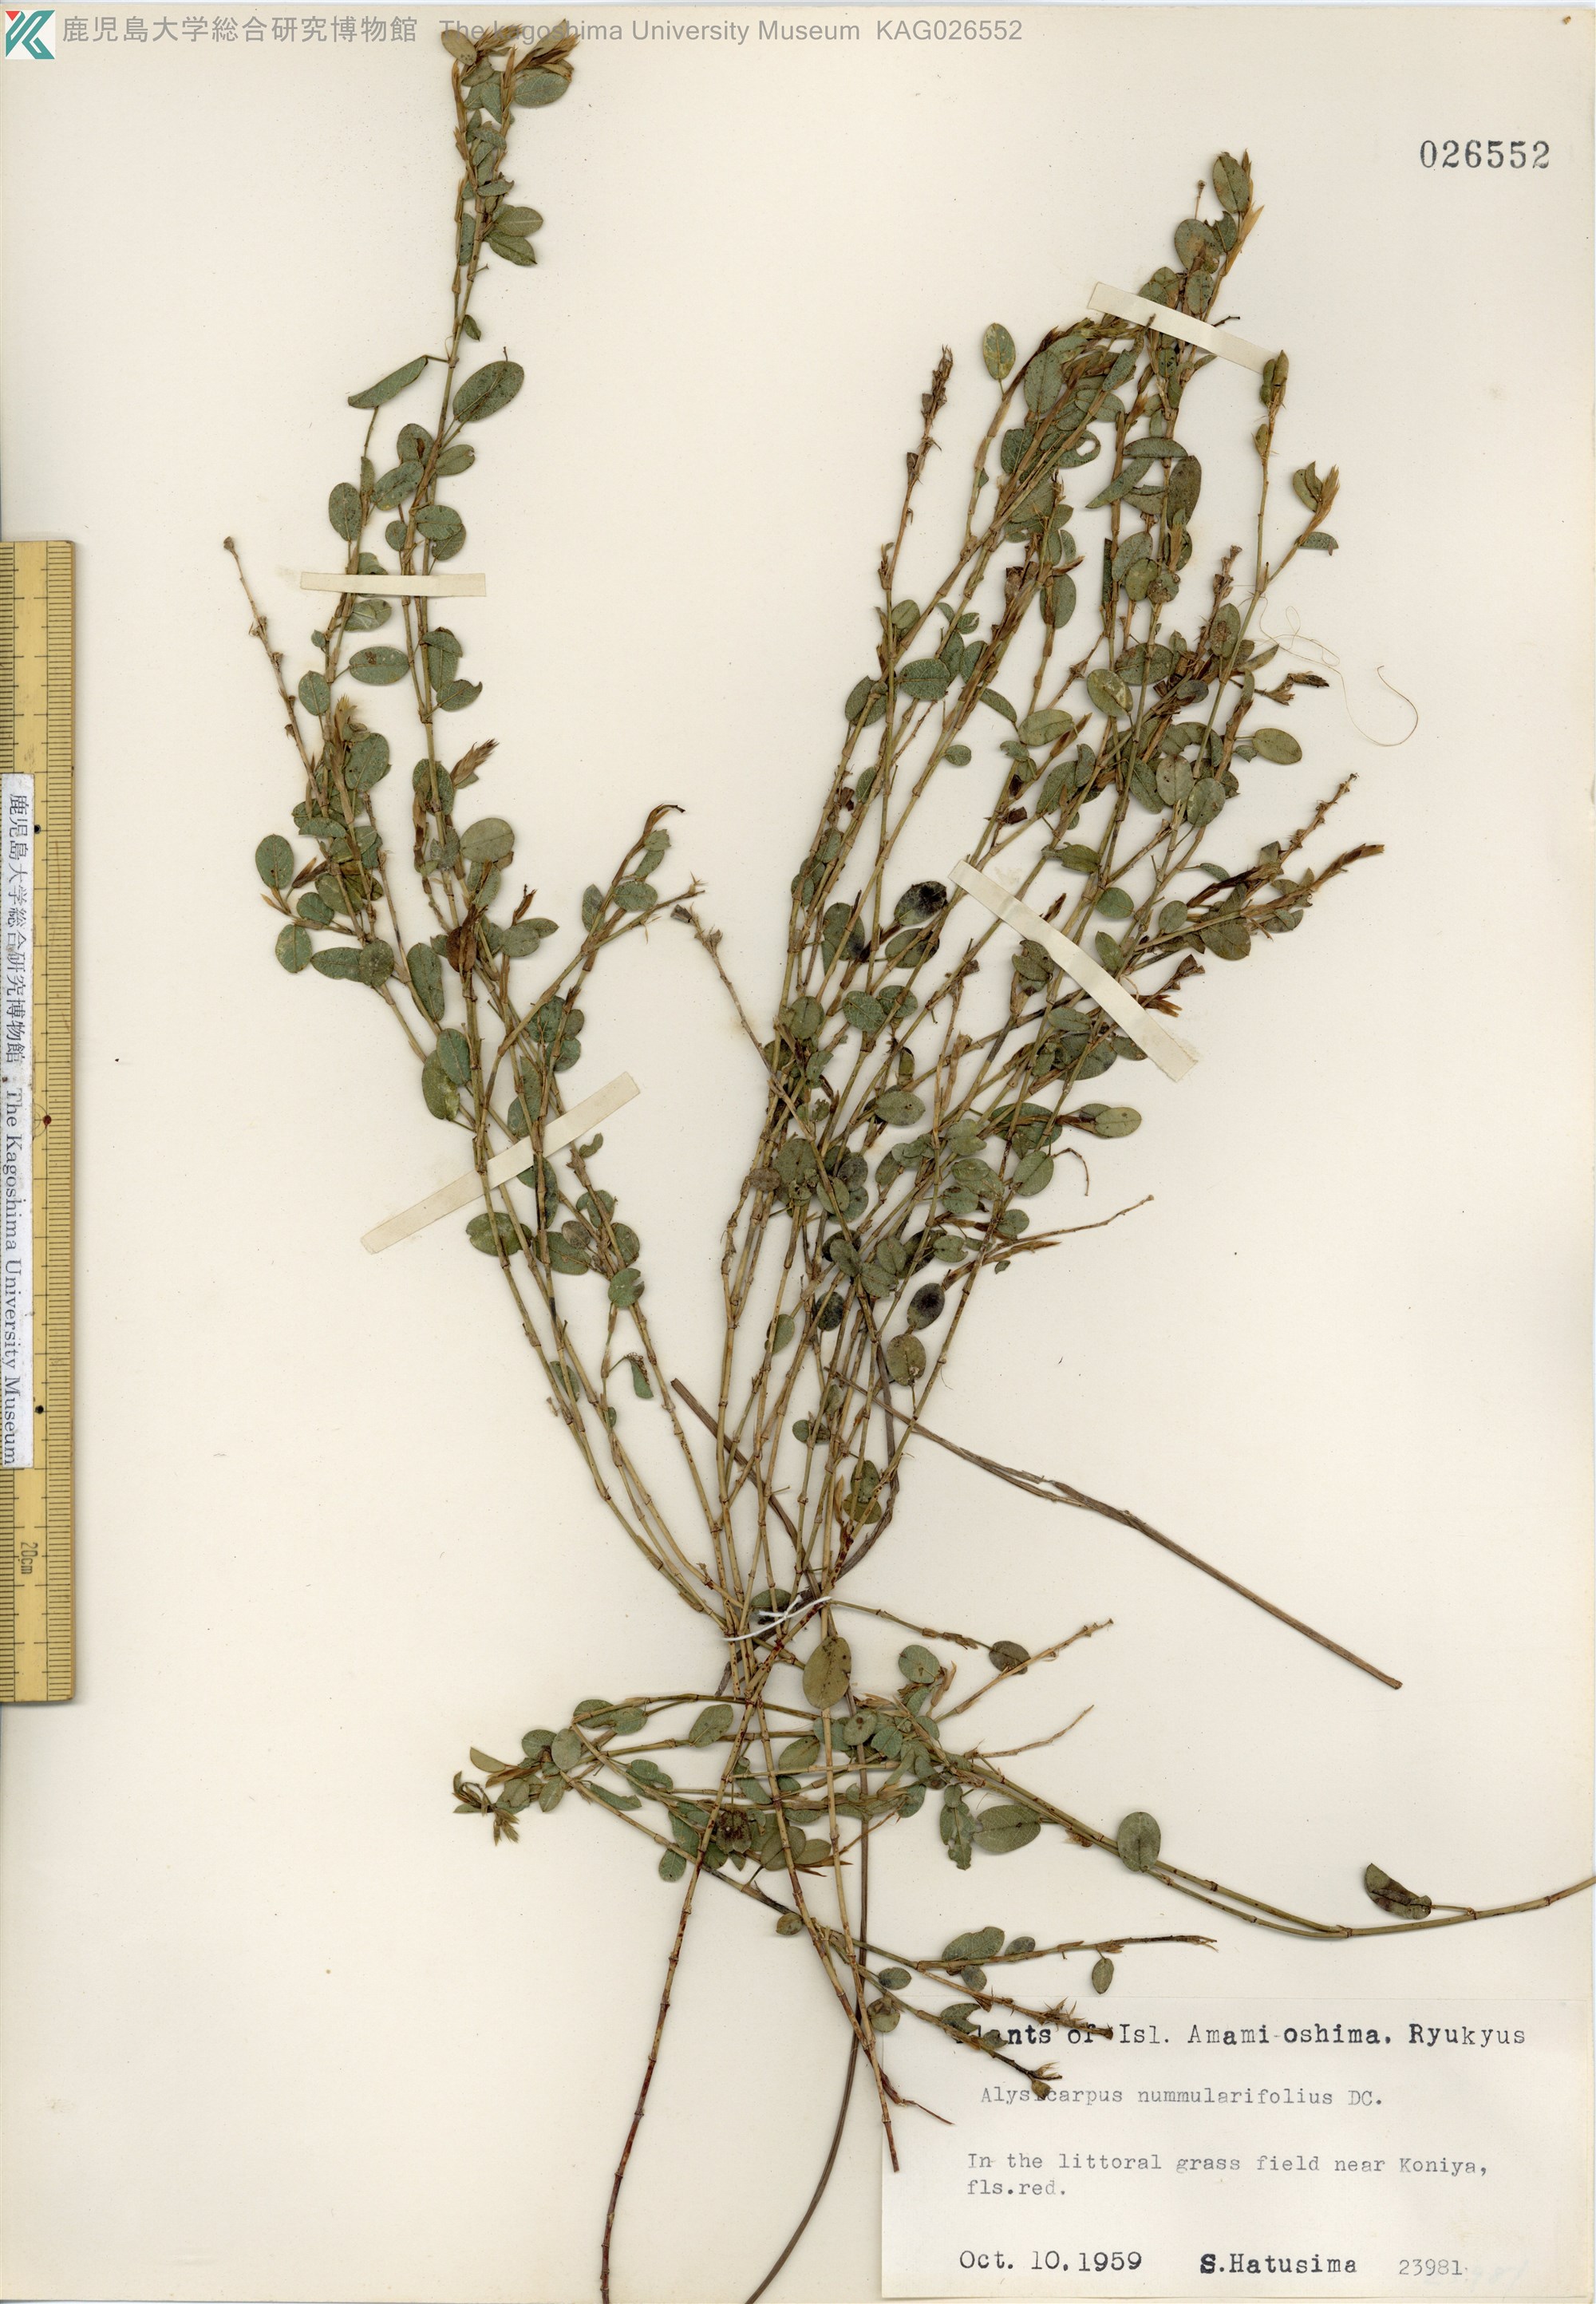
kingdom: Plantae
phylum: Tracheophyta
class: Magnoliopsida
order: Fabales
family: Fabaceae
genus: Alysicarpus
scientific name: Alysicarpus vaginalis
